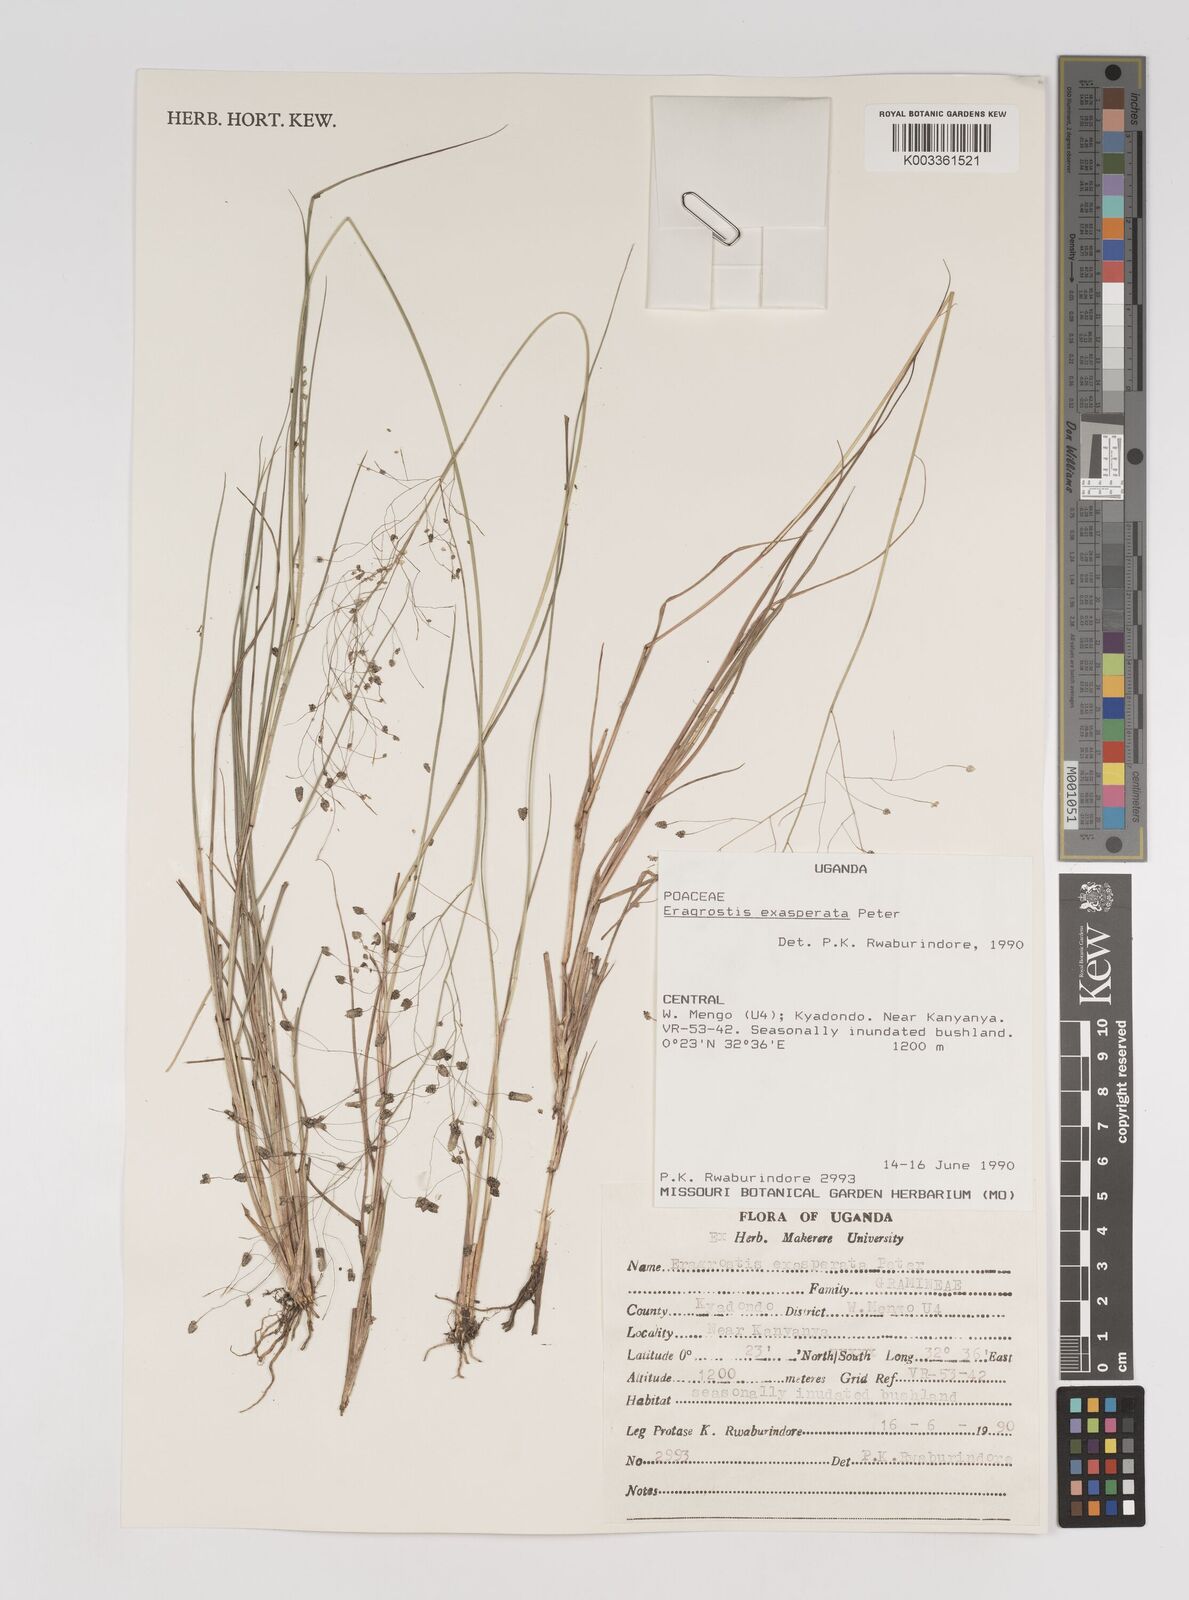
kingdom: Plantae
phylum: Tracheophyta
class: Liliopsida
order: Poales
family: Poaceae
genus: Eragrostis
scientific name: Eragrostis exasperata
